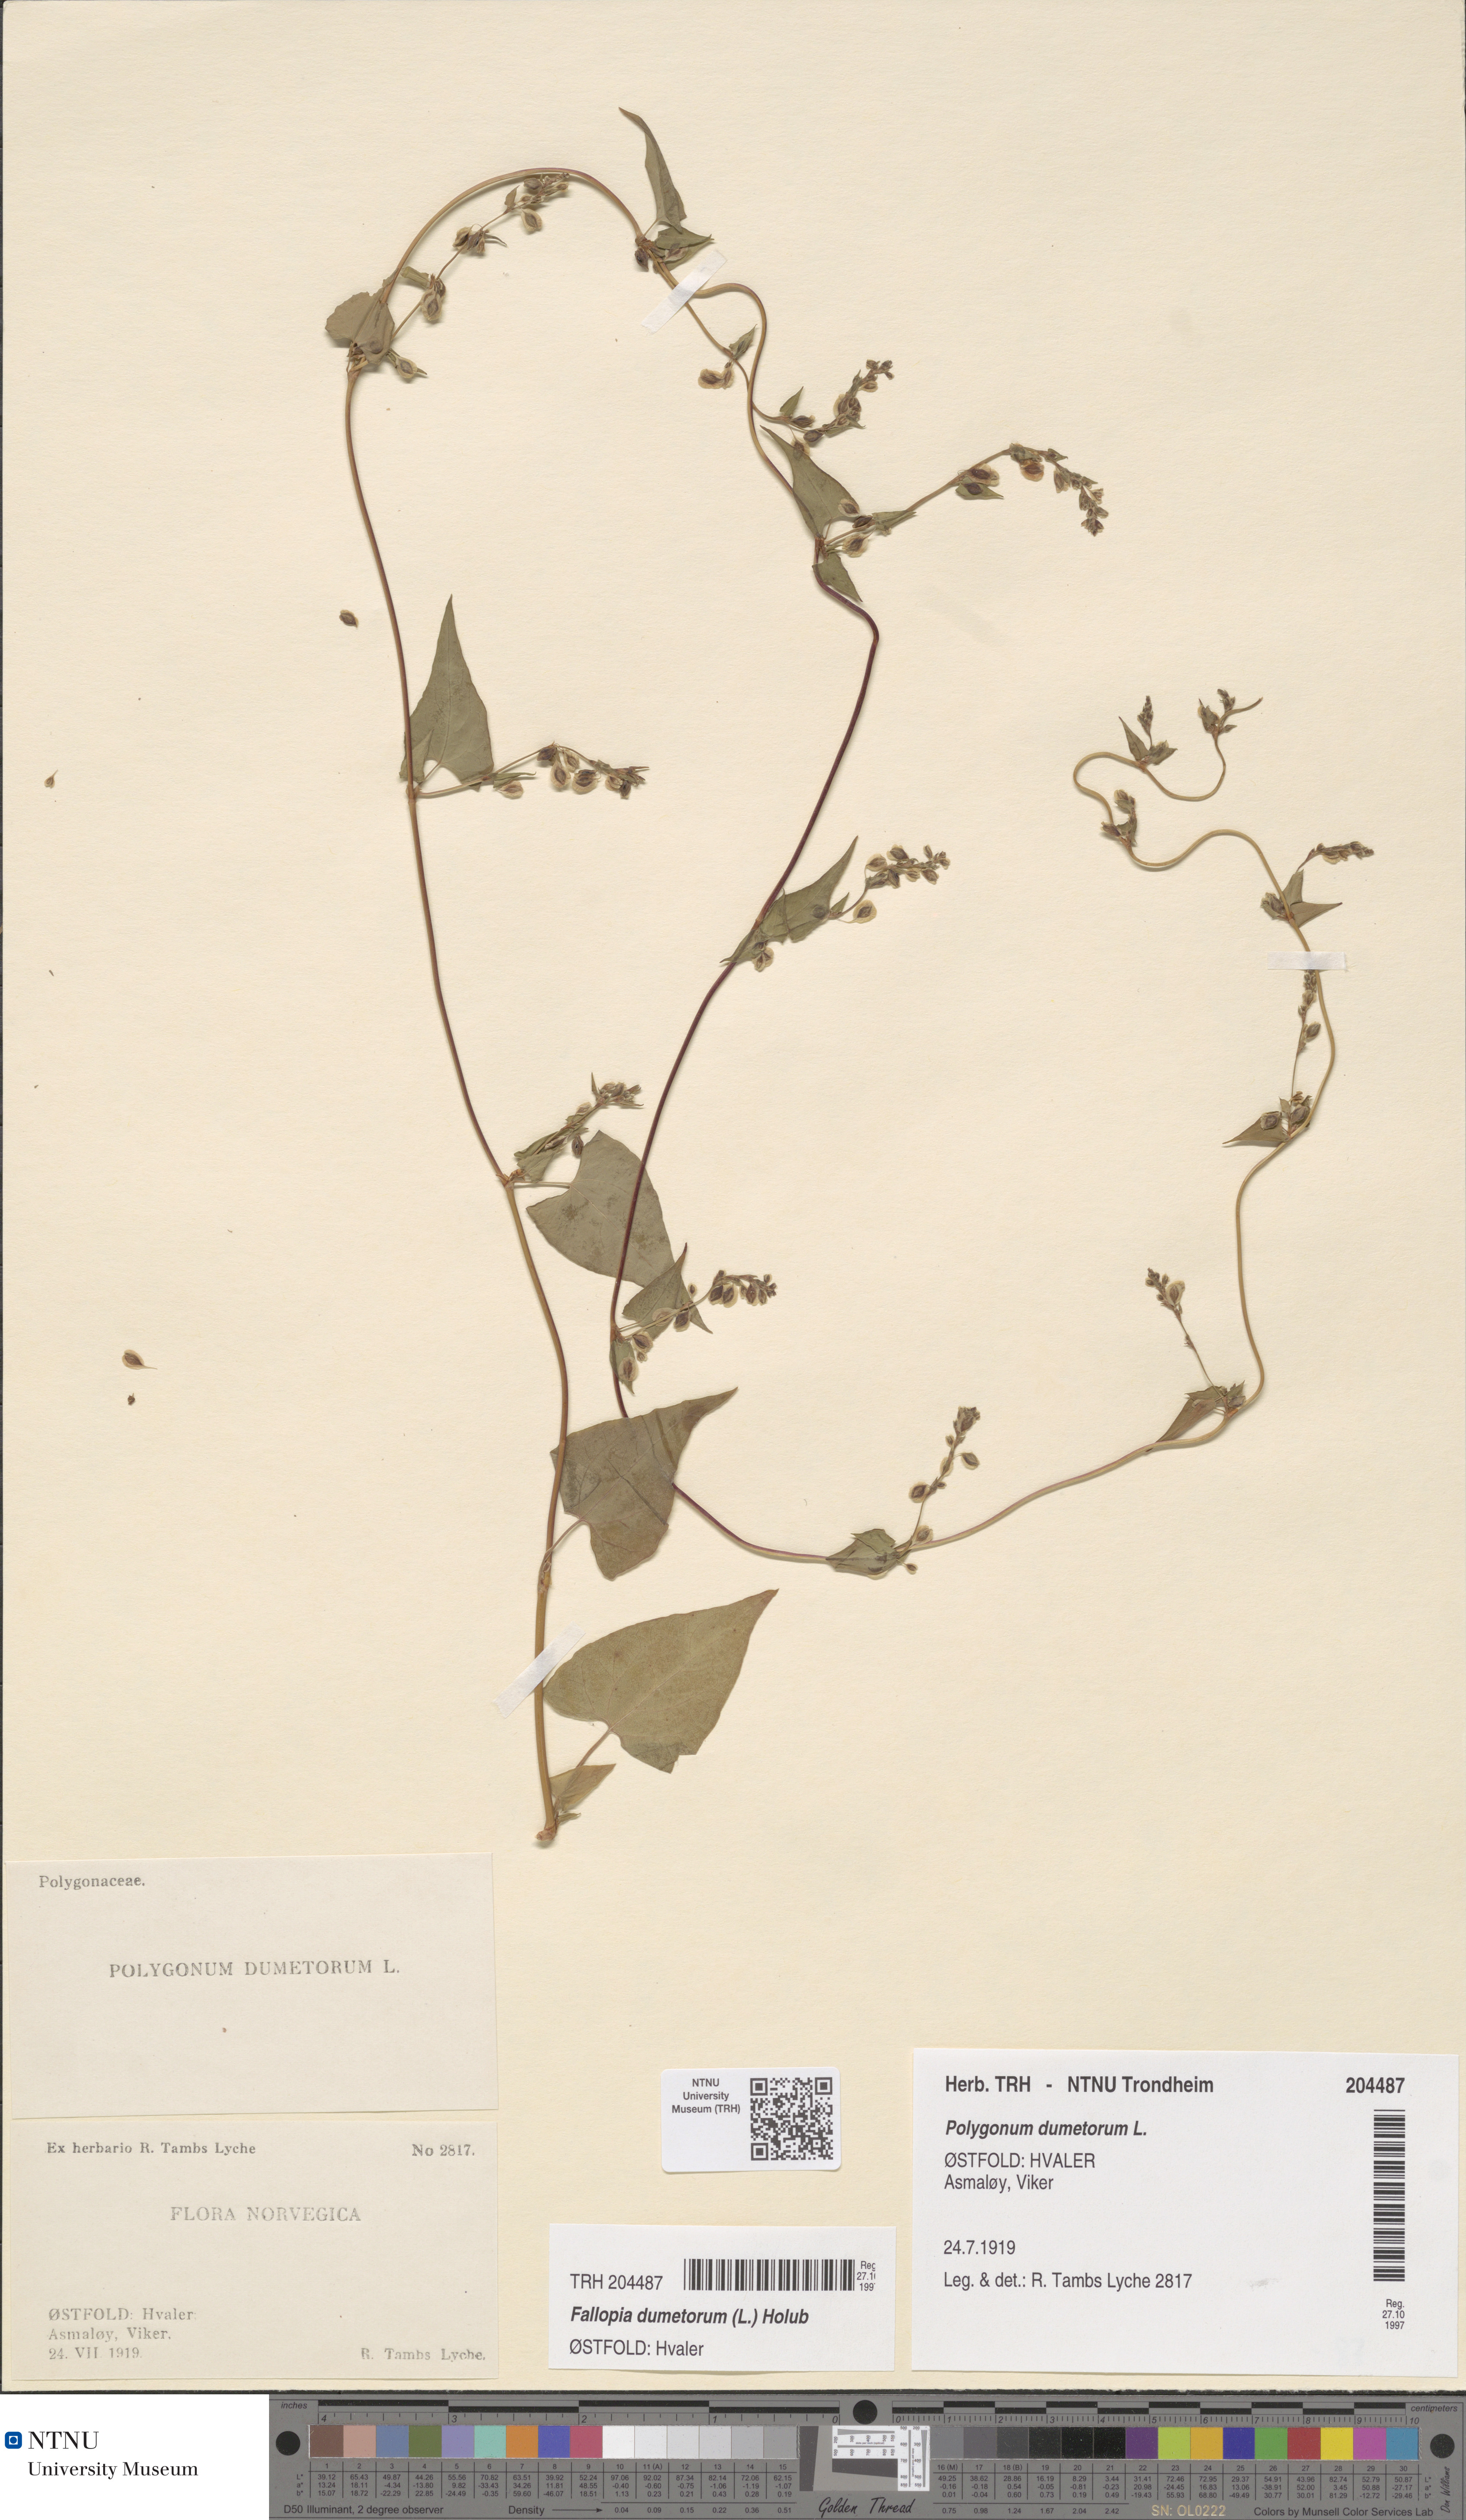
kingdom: Plantae
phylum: Tracheophyta
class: Magnoliopsida
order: Caryophyllales
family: Polygonaceae
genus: Fallopia
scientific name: Fallopia dumetorum
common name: Copse-bindweed
